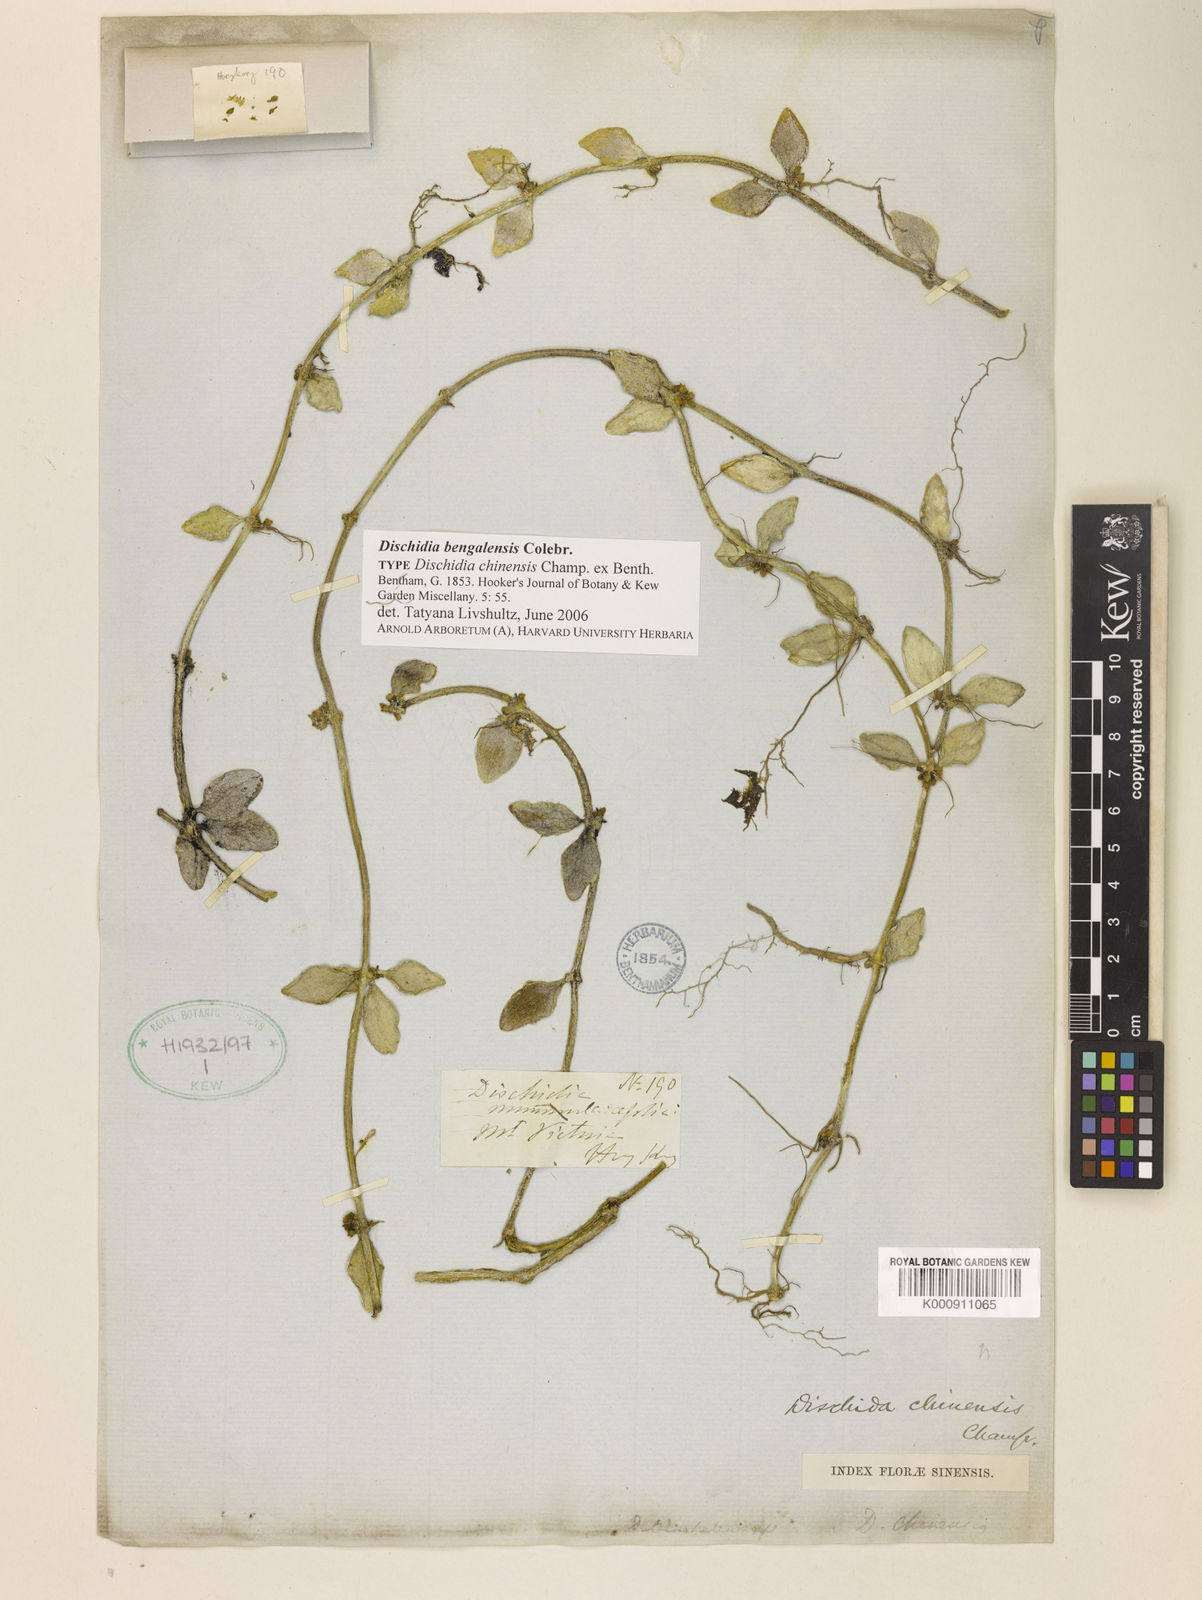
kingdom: Plantae
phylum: Tracheophyta
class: Magnoliopsida
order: Gentianales
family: Apocynaceae
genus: Dischidia
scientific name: Dischidia bengalensis
